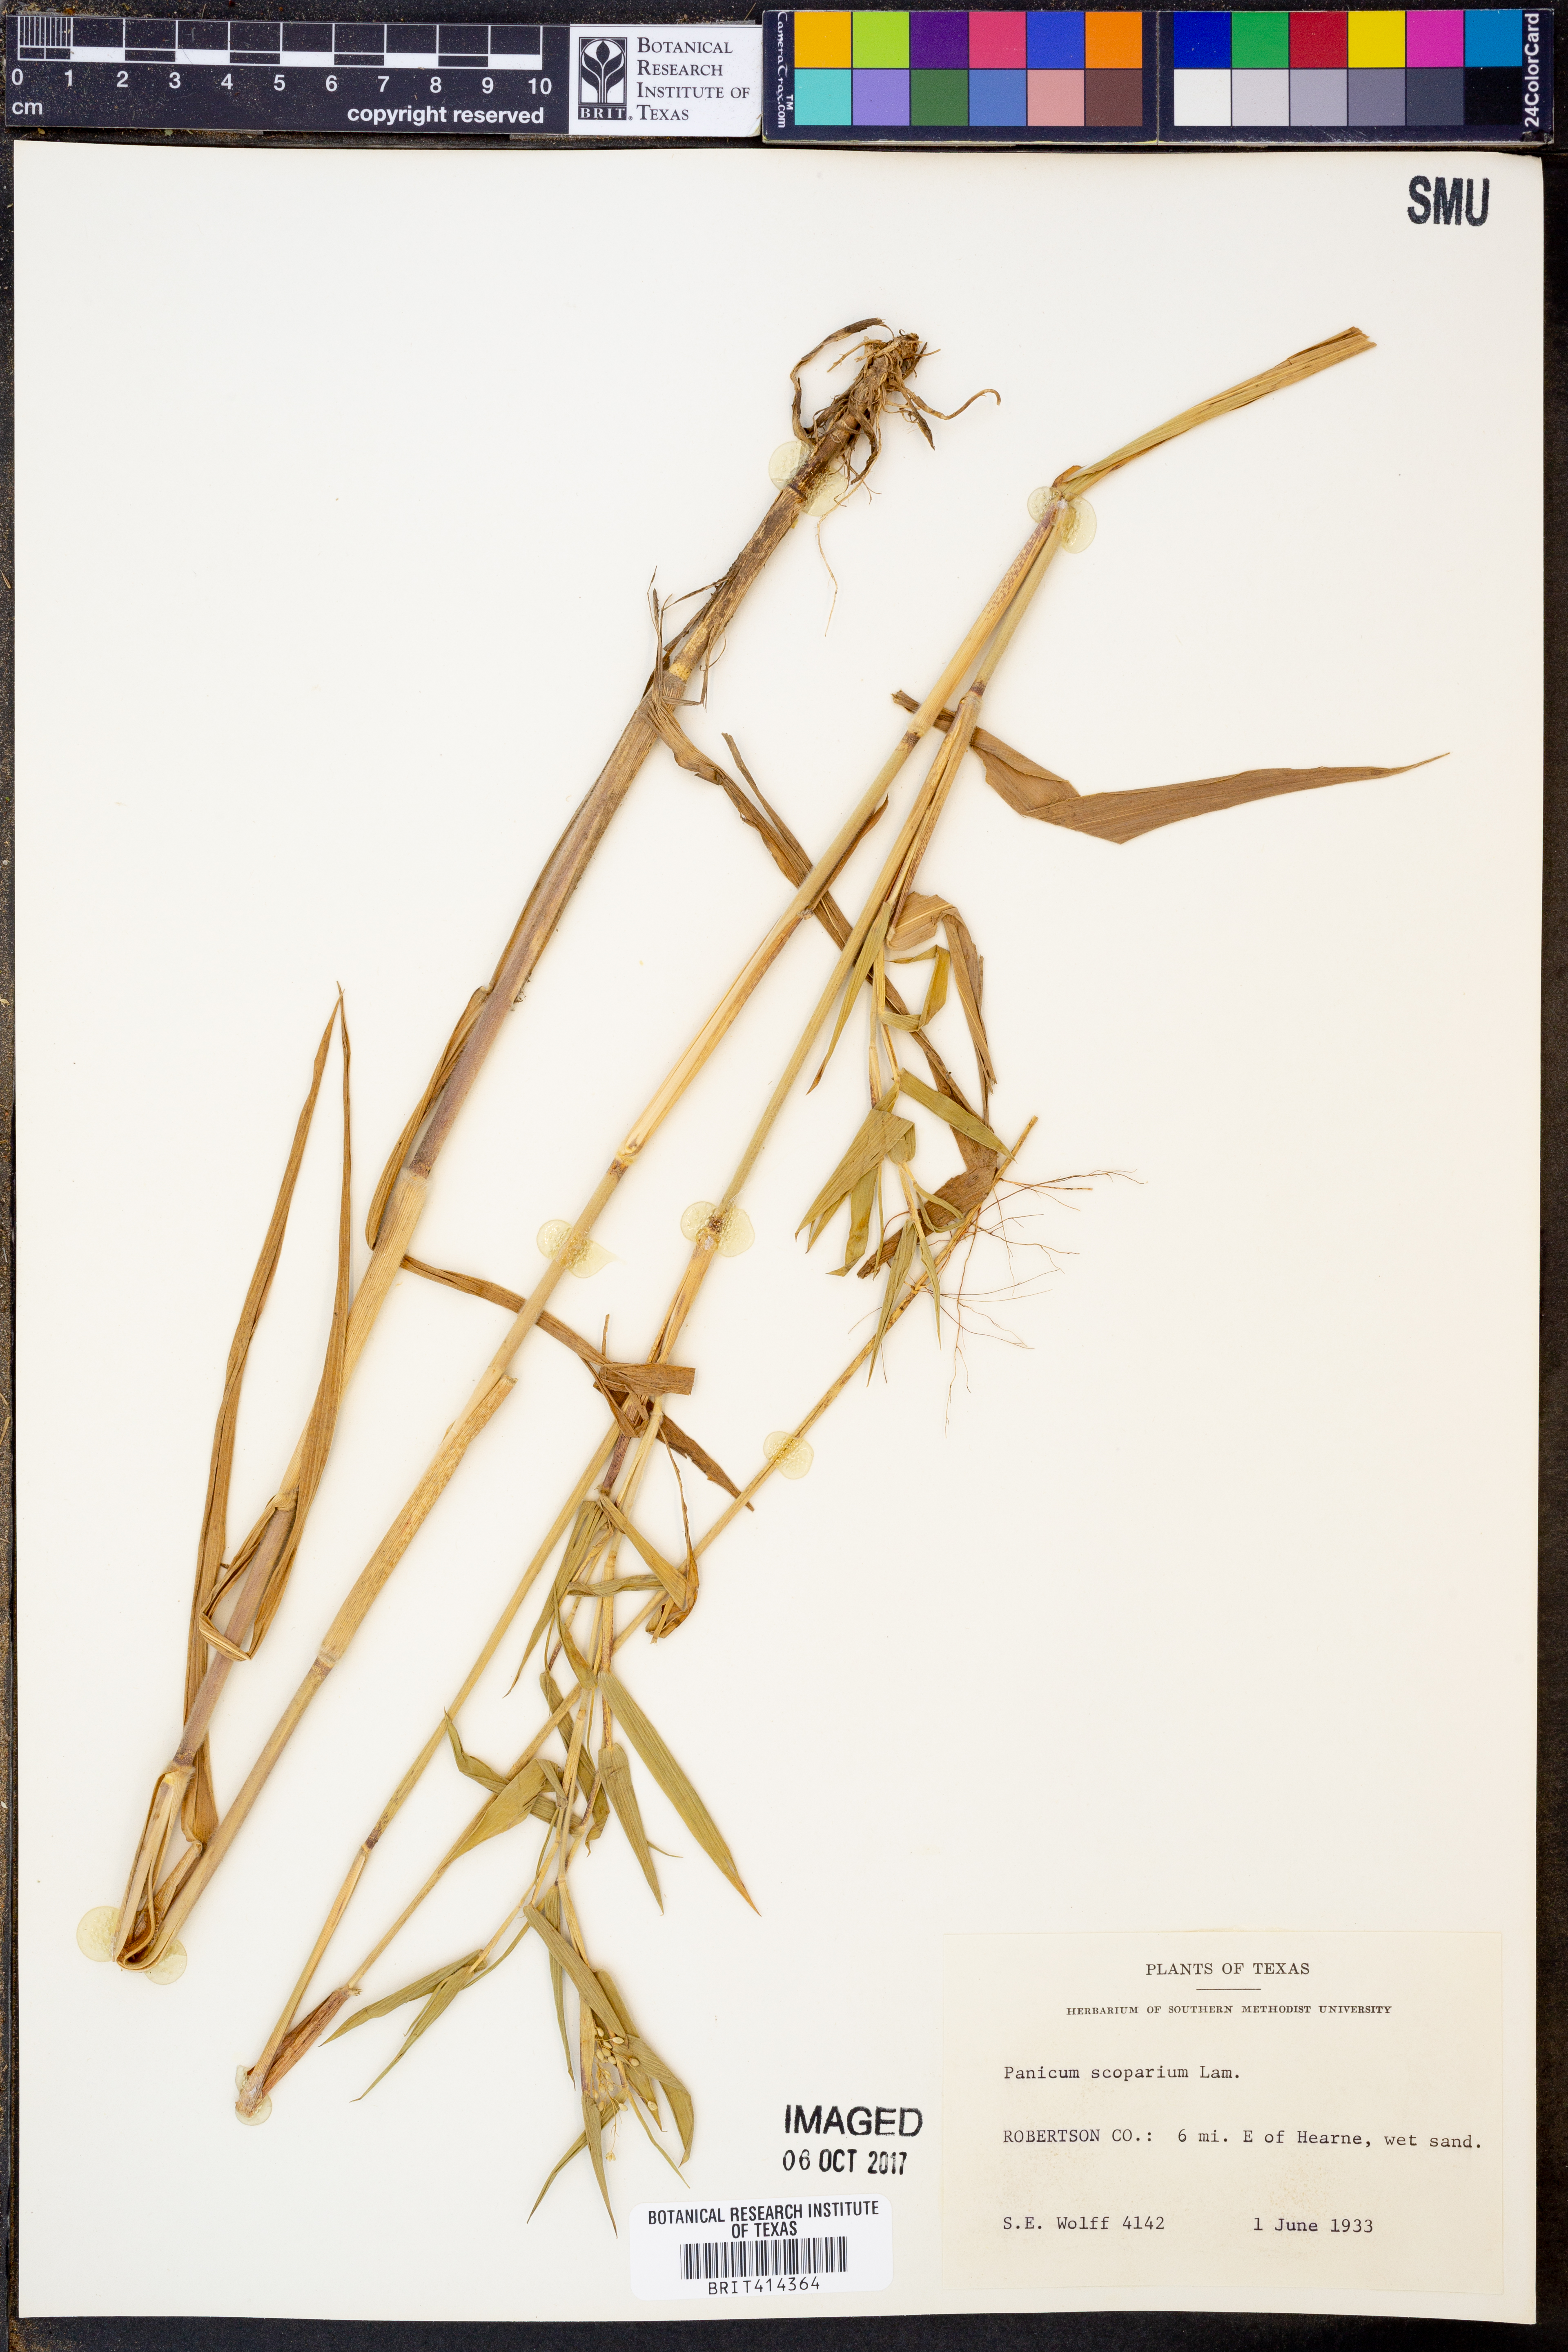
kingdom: Plantae
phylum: Tracheophyta
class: Liliopsida
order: Poales
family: Poaceae
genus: Dichanthelium
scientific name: Dichanthelium scribnerianum
